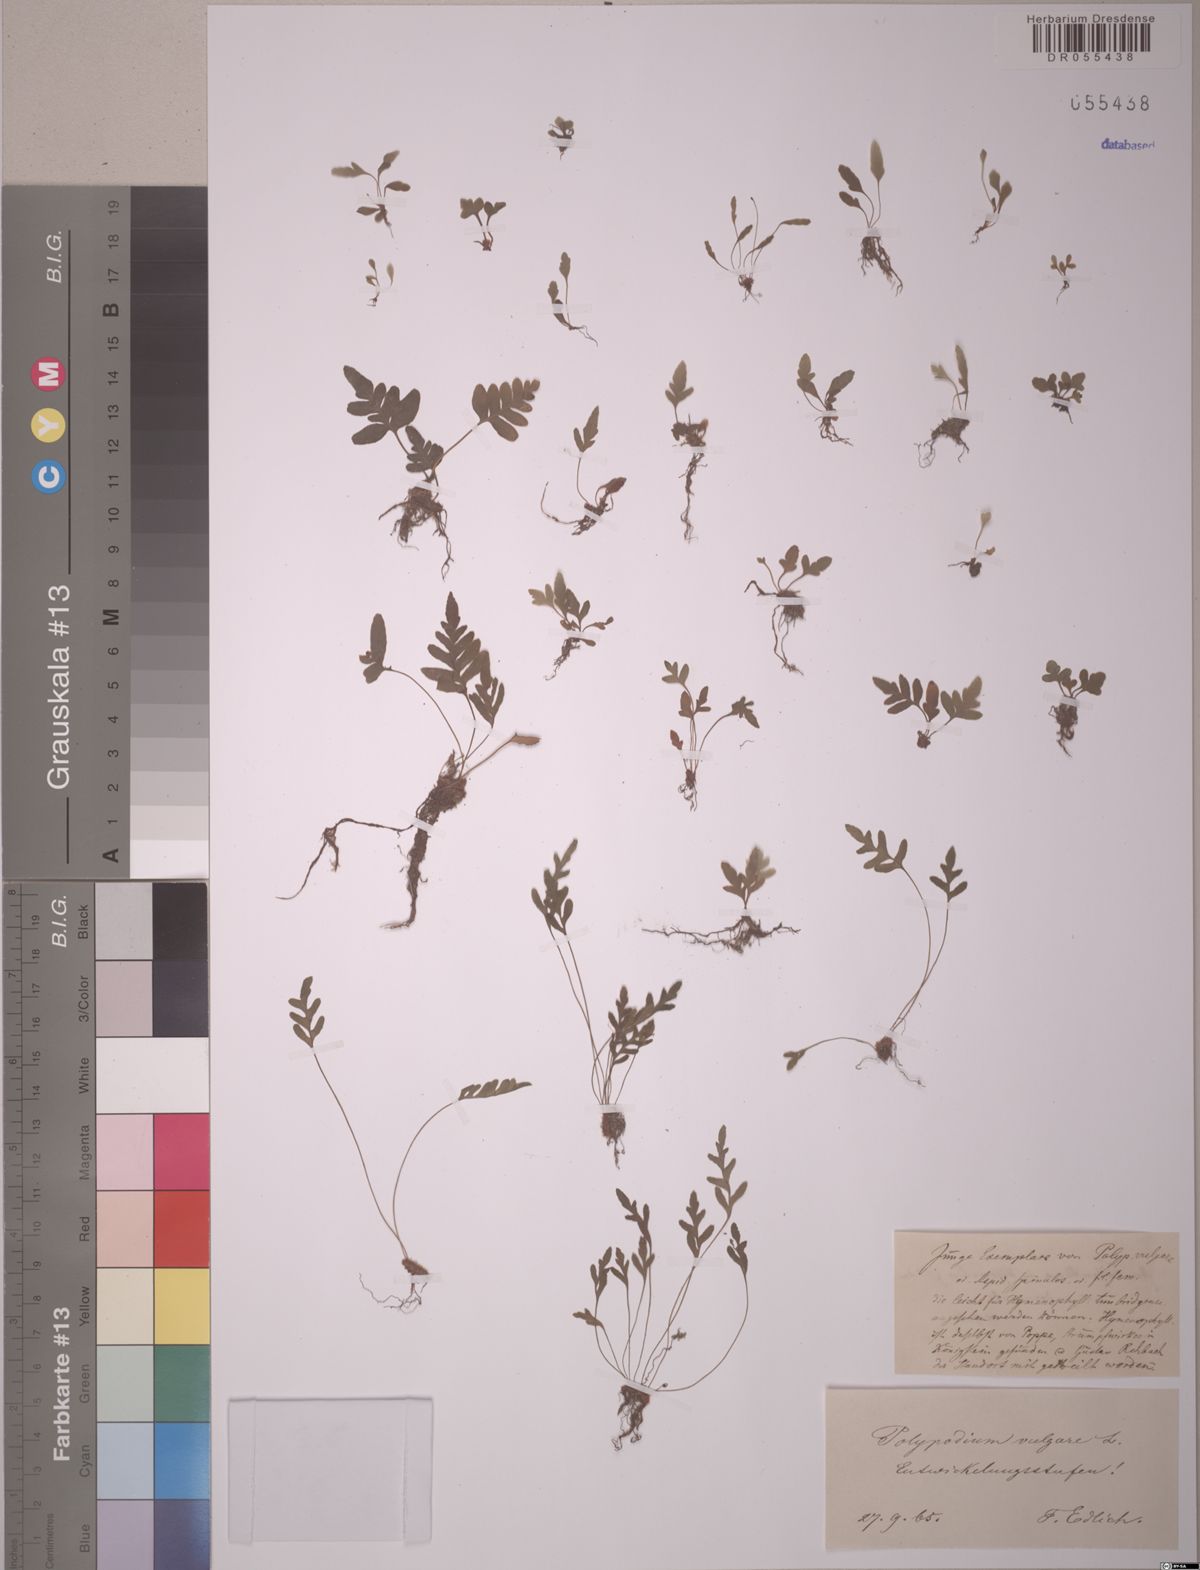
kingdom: Plantae
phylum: Tracheophyta
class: Polypodiopsida
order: Polypodiales
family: Polypodiaceae
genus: Polypodium
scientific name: Polypodium vulgare
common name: Common polypody
